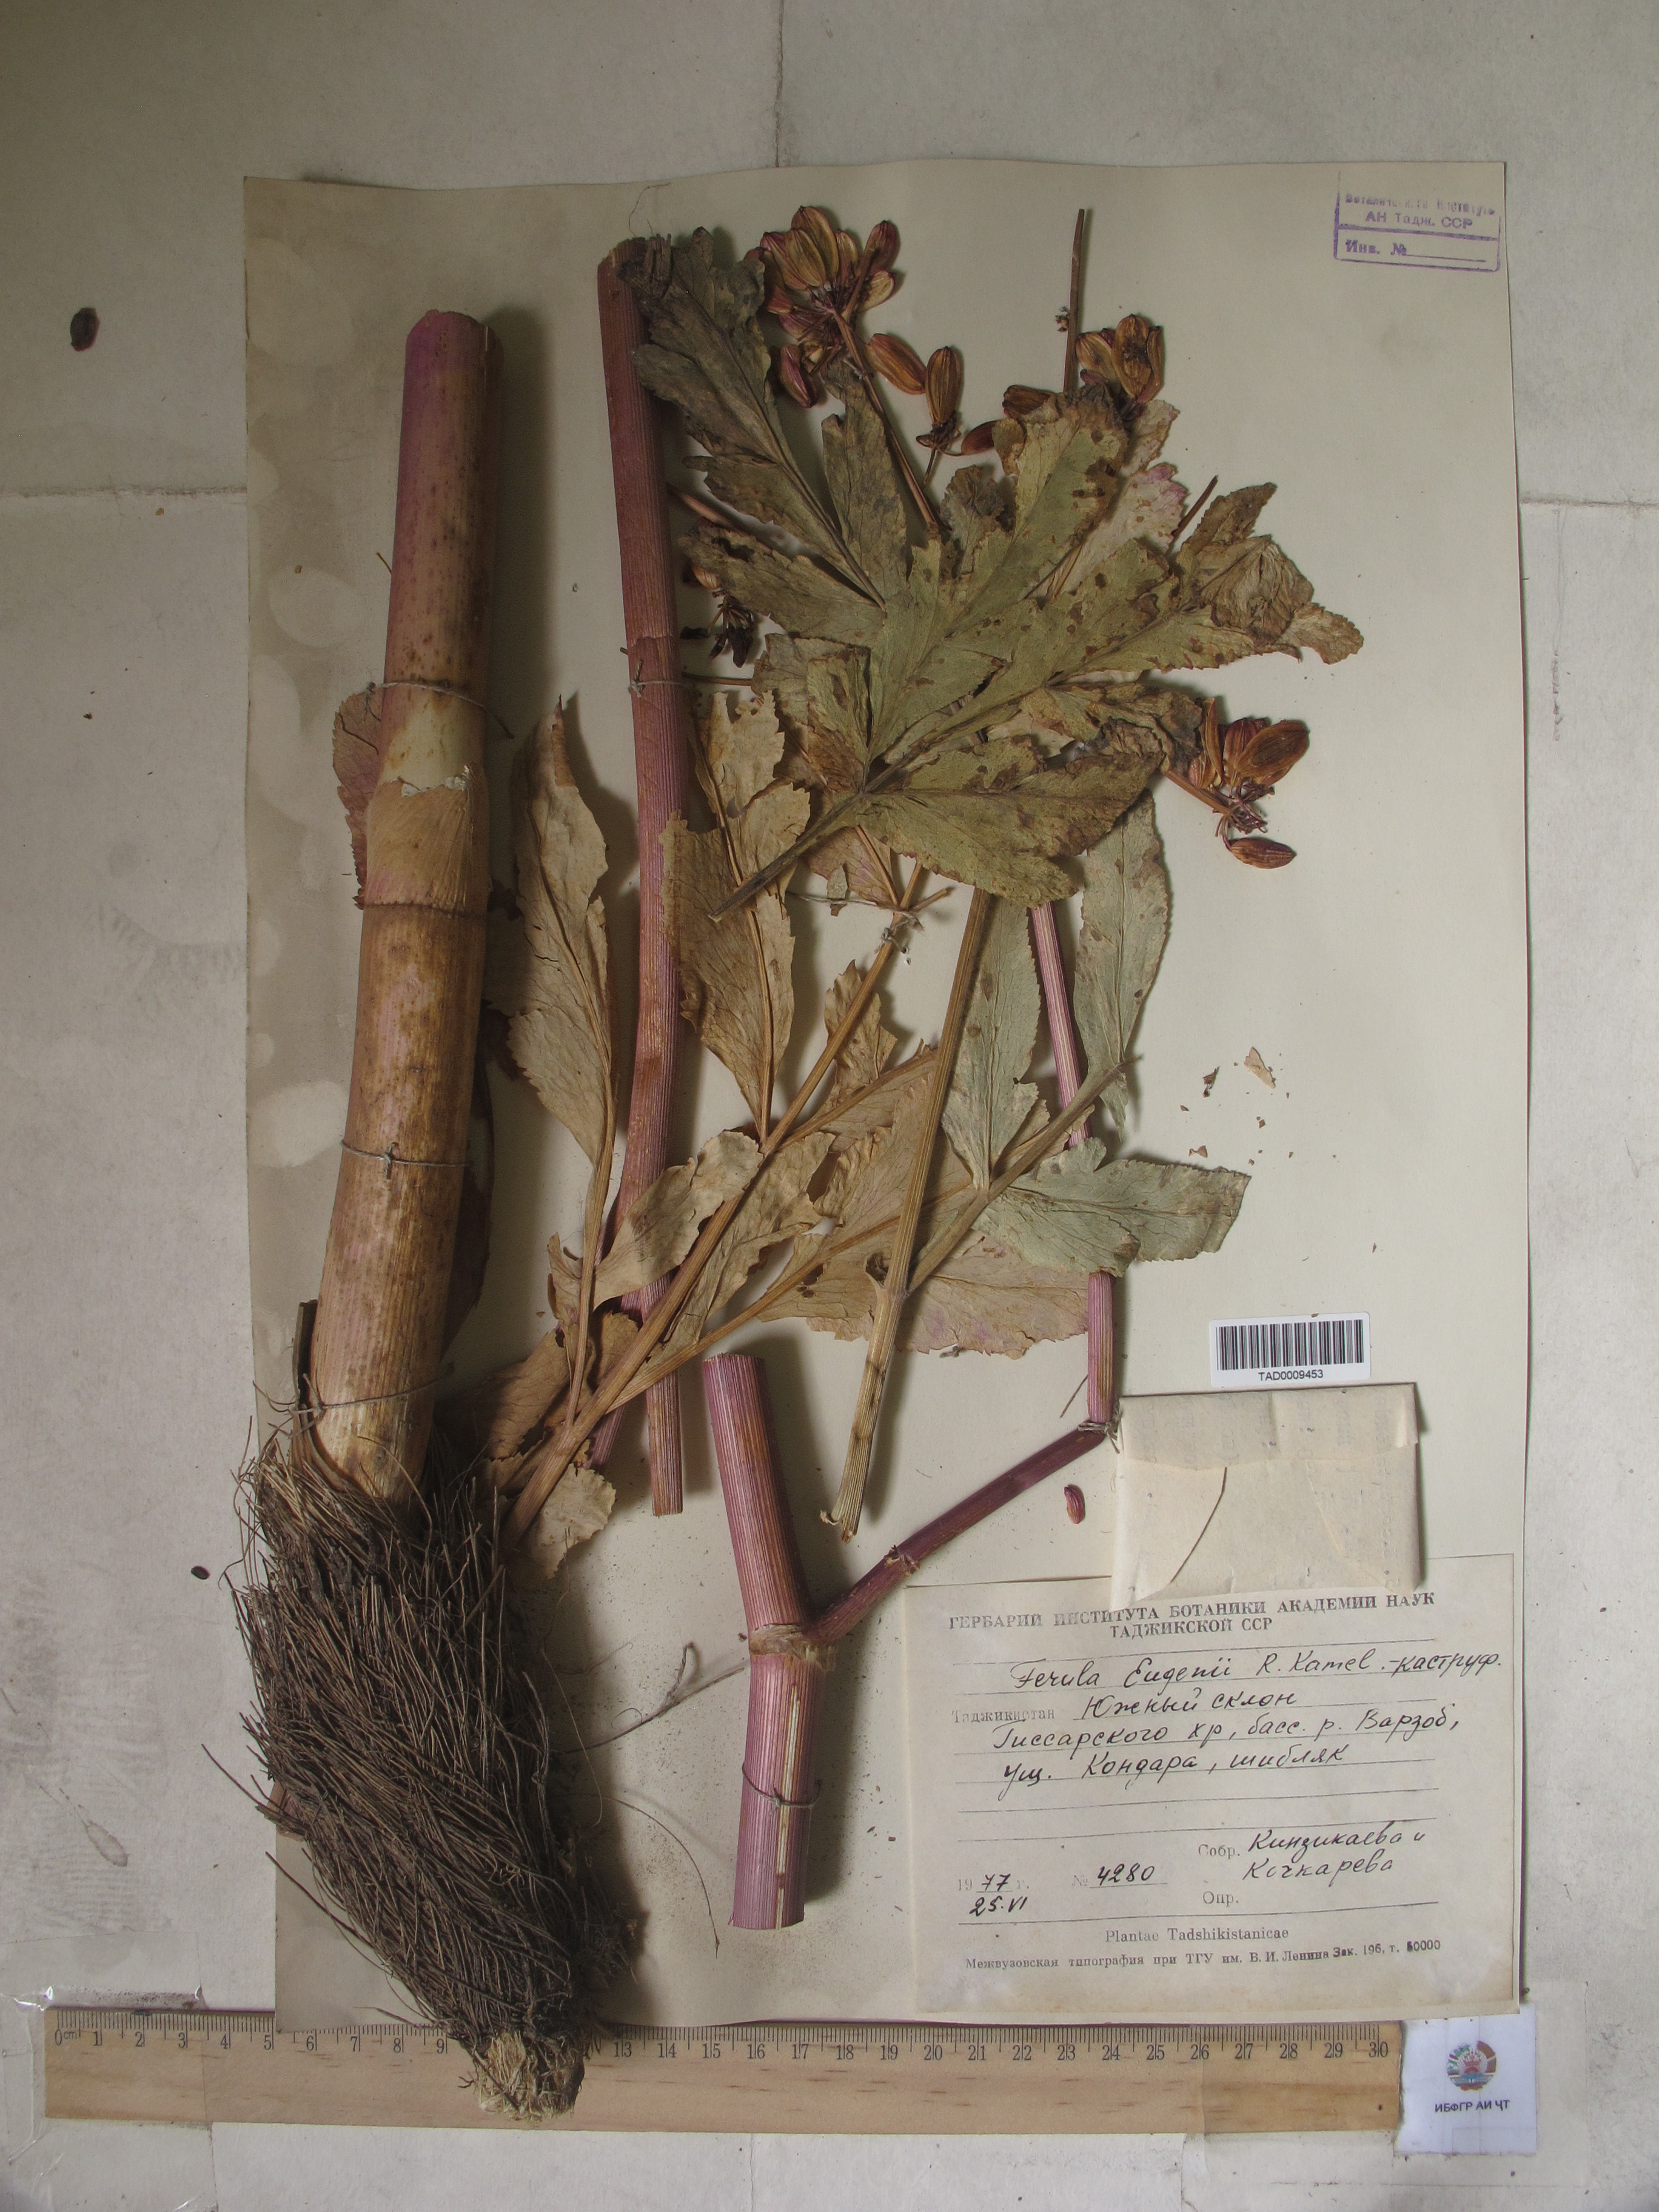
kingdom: Plantae
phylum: Tracheophyta
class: Magnoliopsida
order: Apiales
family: Apiaceae
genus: Ferula
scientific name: Ferula violacea
